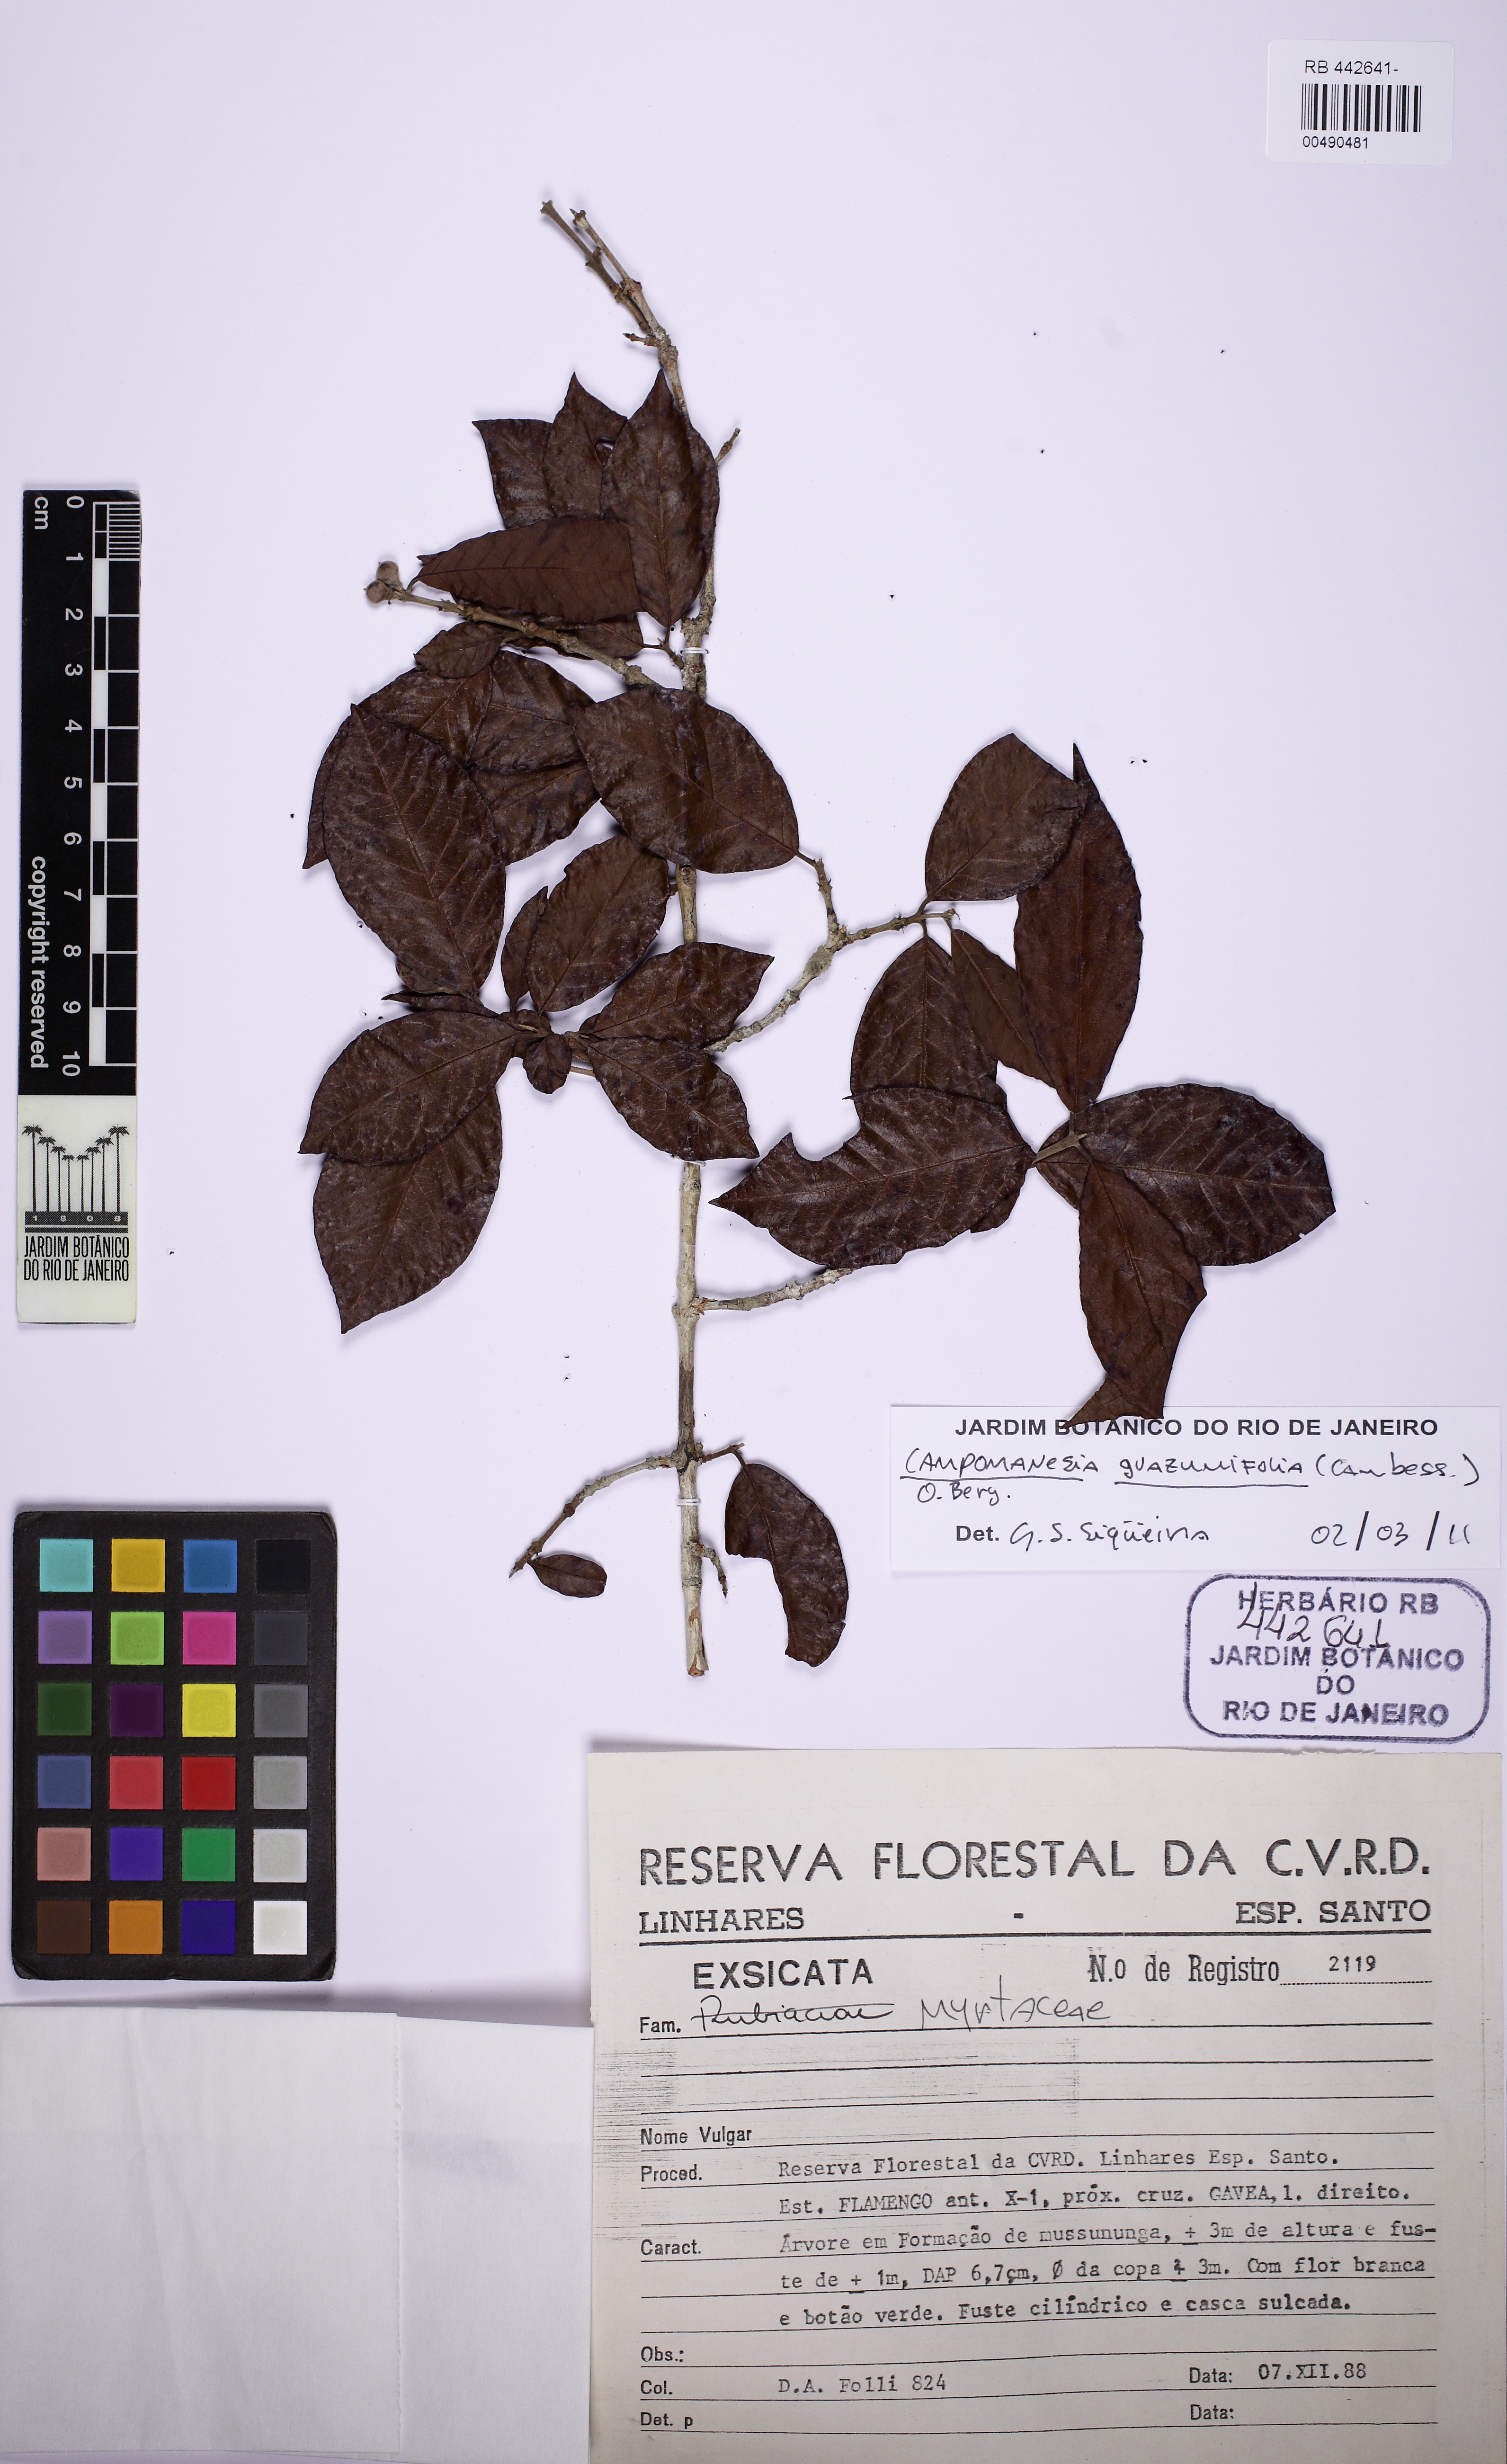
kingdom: Plantae
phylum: Tracheophyta
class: Magnoliopsida
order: Myrtales
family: Myrtaceae
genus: Campomanesia
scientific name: Campomanesia guazumifolia
